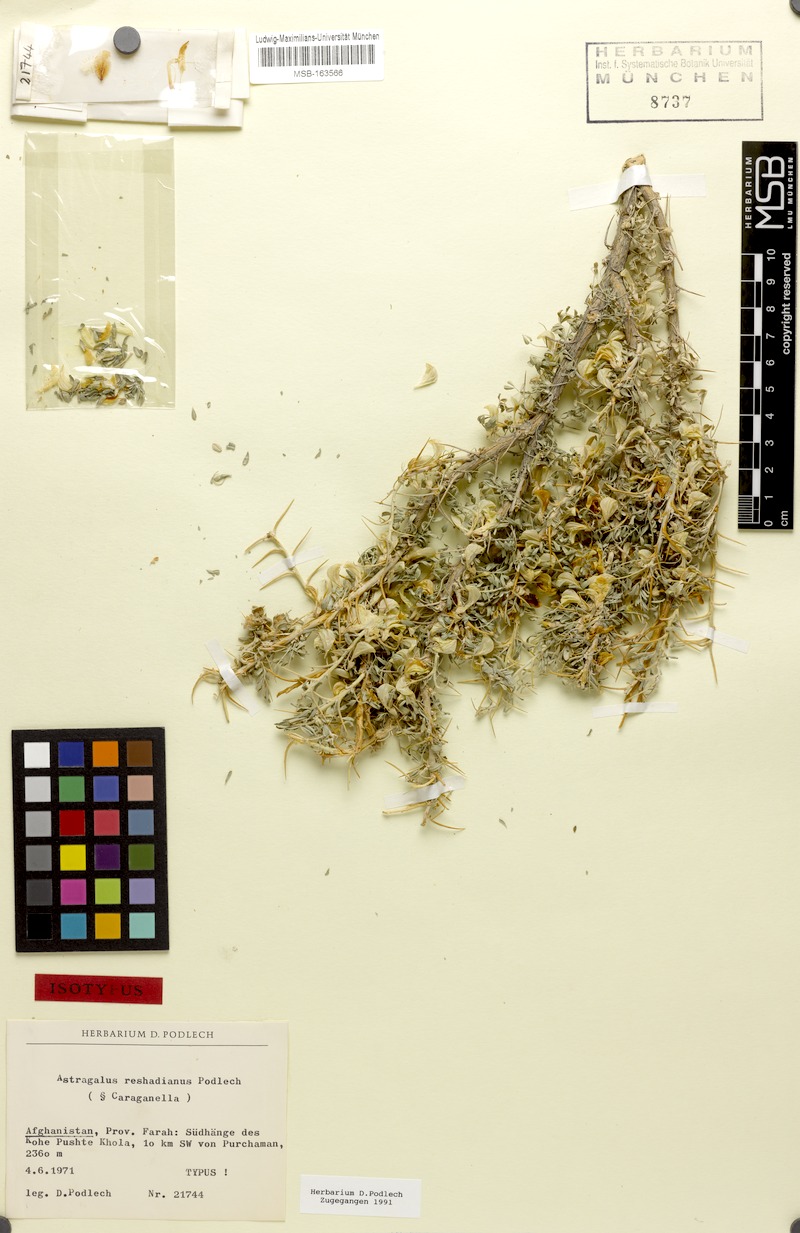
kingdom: Plantae
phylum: Tracheophyta
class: Magnoliopsida
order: Fabales
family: Fabaceae
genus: Astragalus
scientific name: Astragalus reshadianus
